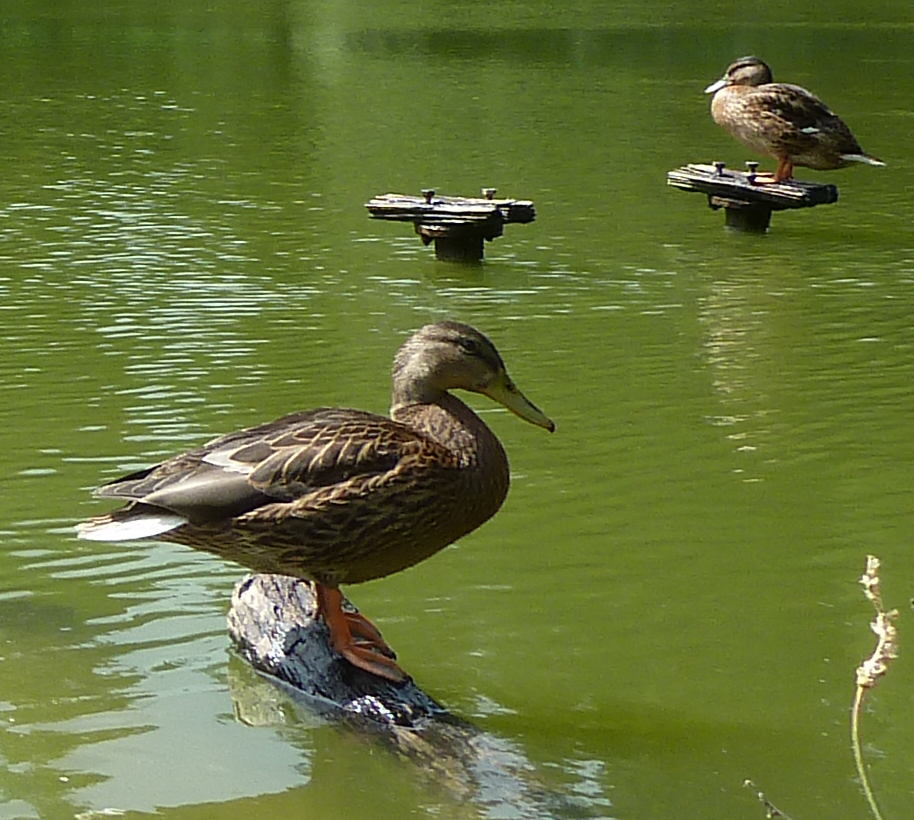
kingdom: Animalia
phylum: Chordata
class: Aves
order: Anseriformes
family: Anatidae
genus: Anas
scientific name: Anas platyrhynchos
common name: Mallard
